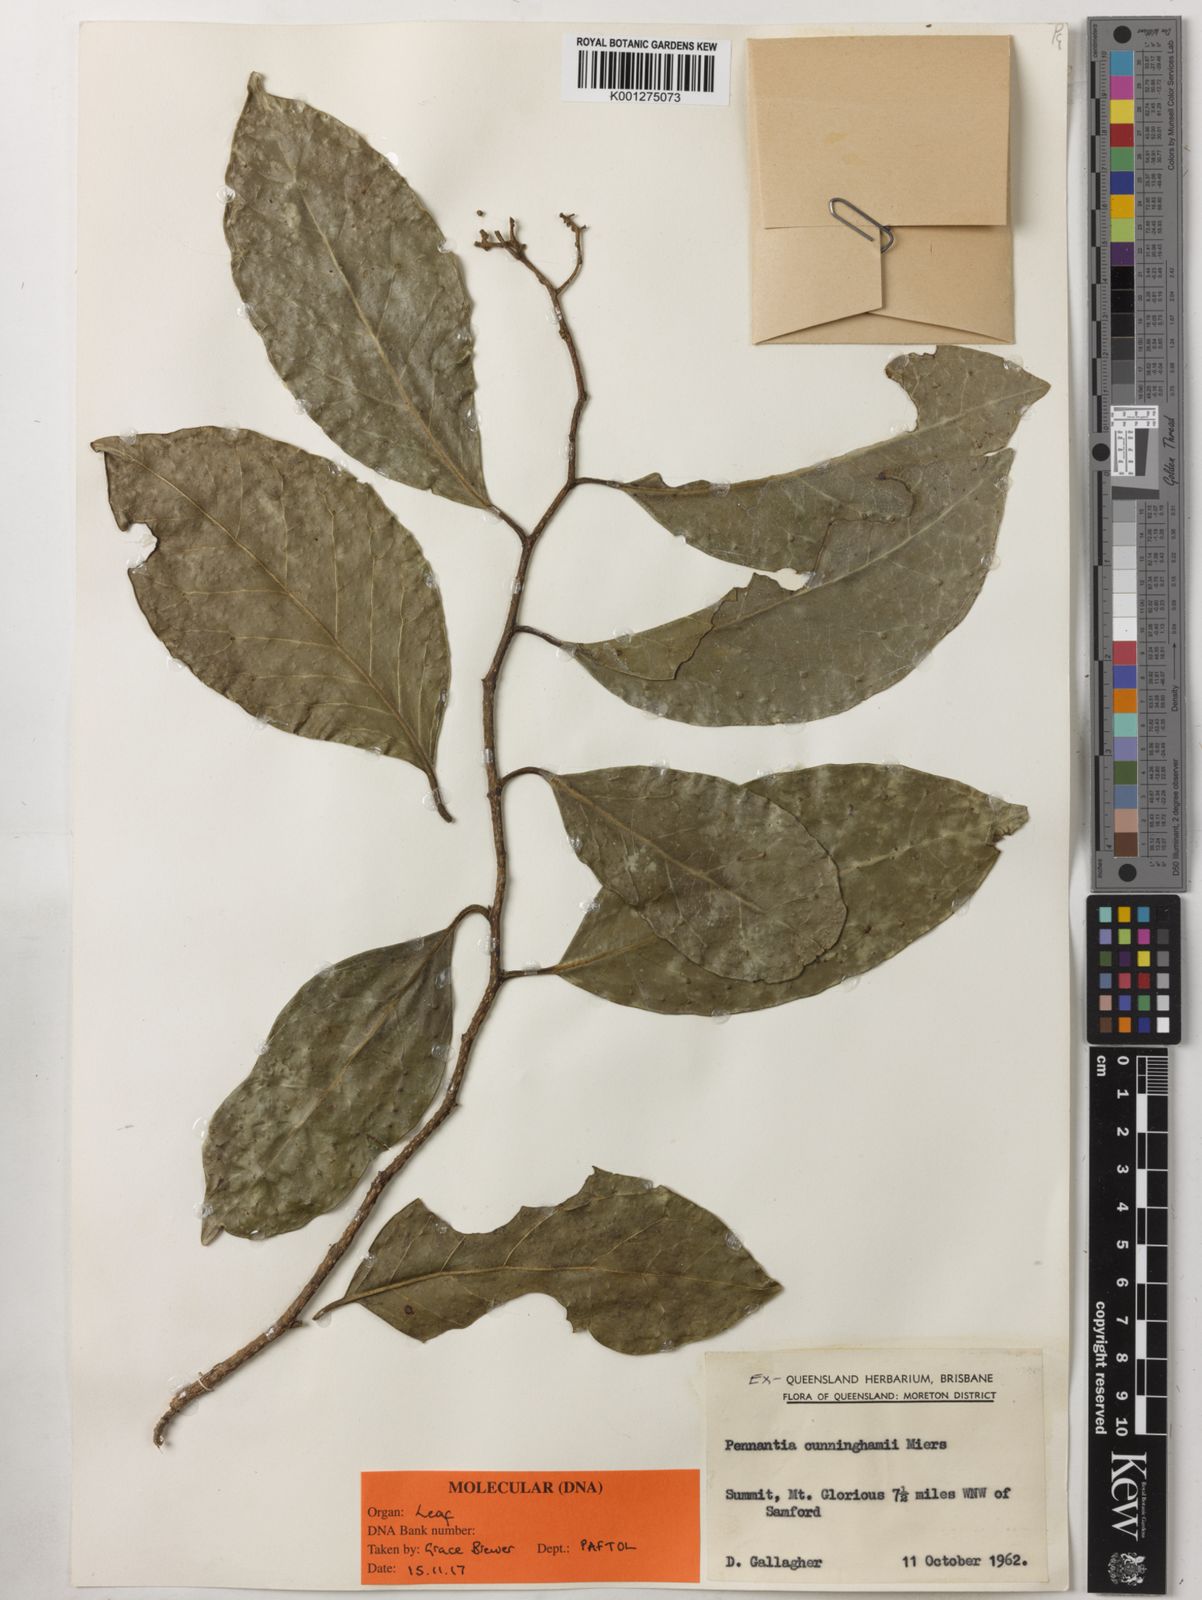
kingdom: Plantae
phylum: Tracheophyta
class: Magnoliopsida
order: Apiales
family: Pennantiaceae
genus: Pennantia
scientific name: Pennantia cunninghamii
